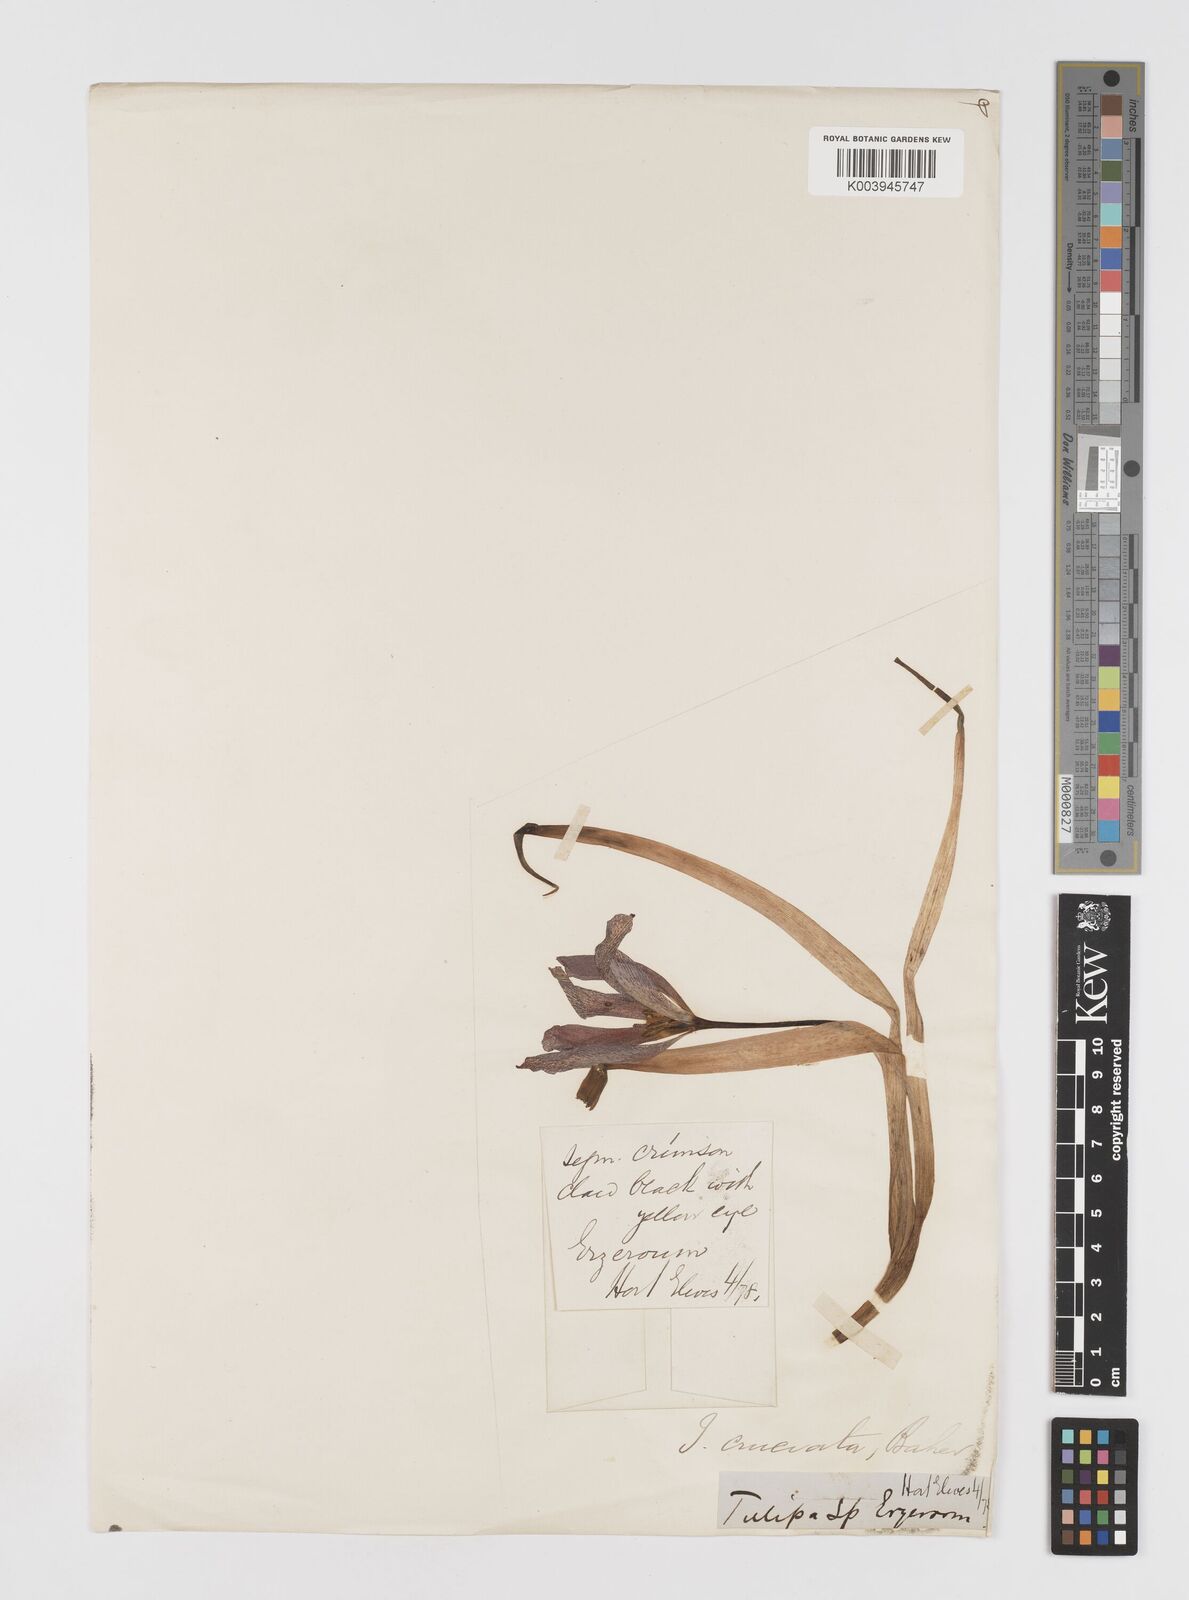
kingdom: Plantae
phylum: Tracheophyta
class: Liliopsida
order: Liliales
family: Liliaceae
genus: Tulipa
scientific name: Tulipa
